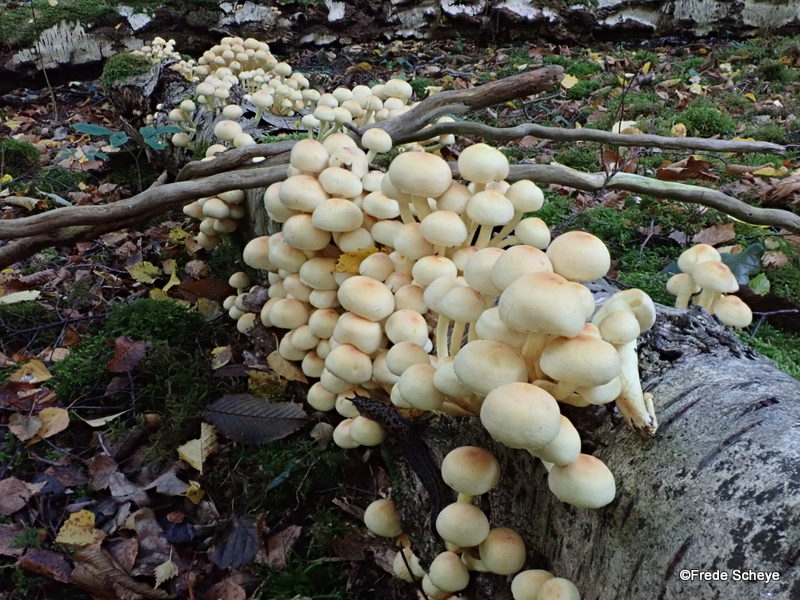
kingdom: Fungi
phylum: Basidiomycota
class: Agaricomycetes
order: Agaricales
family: Strophariaceae
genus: Hypholoma
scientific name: Hypholoma fasciculare
